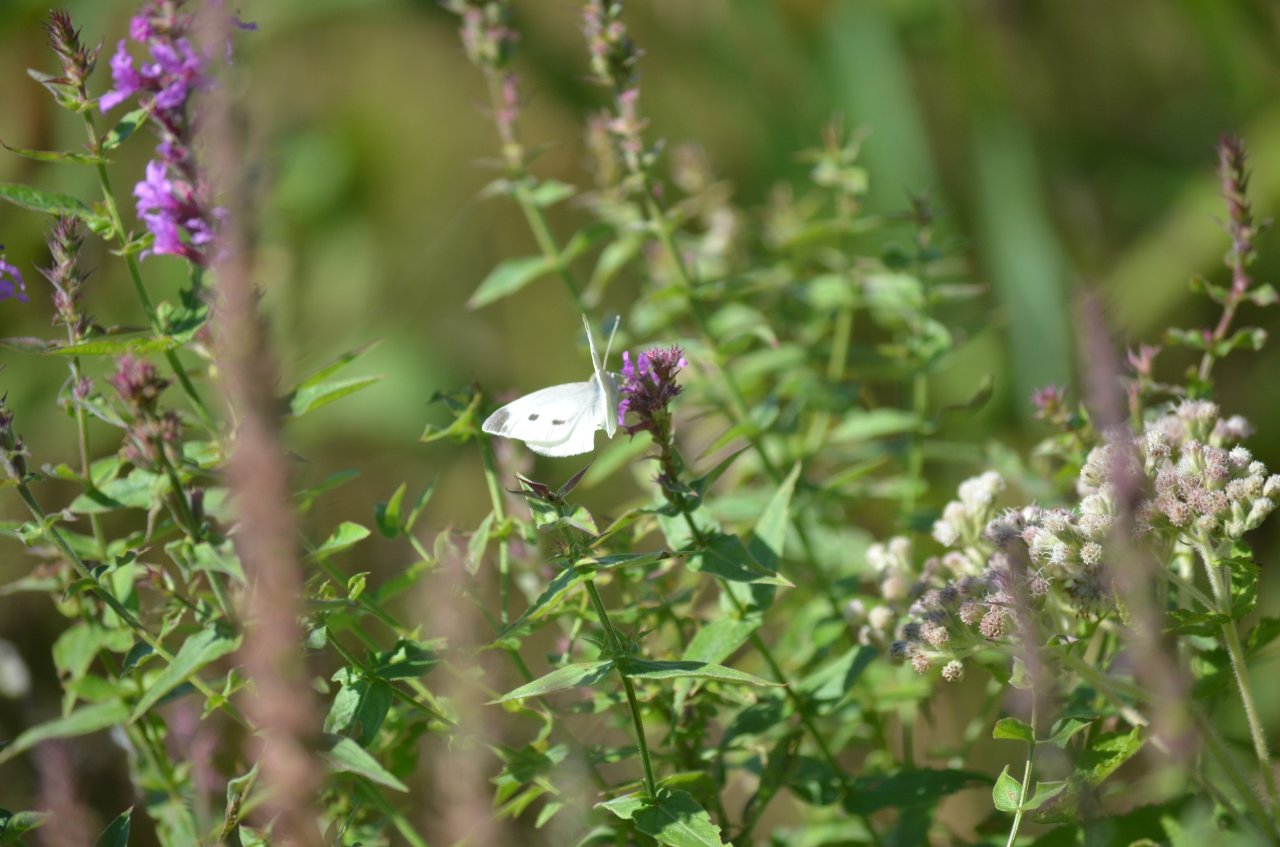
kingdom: Animalia
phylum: Arthropoda
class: Insecta
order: Lepidoptera
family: Pieridae
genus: Pieris
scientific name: Pieris rapae
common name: Cabbage White
